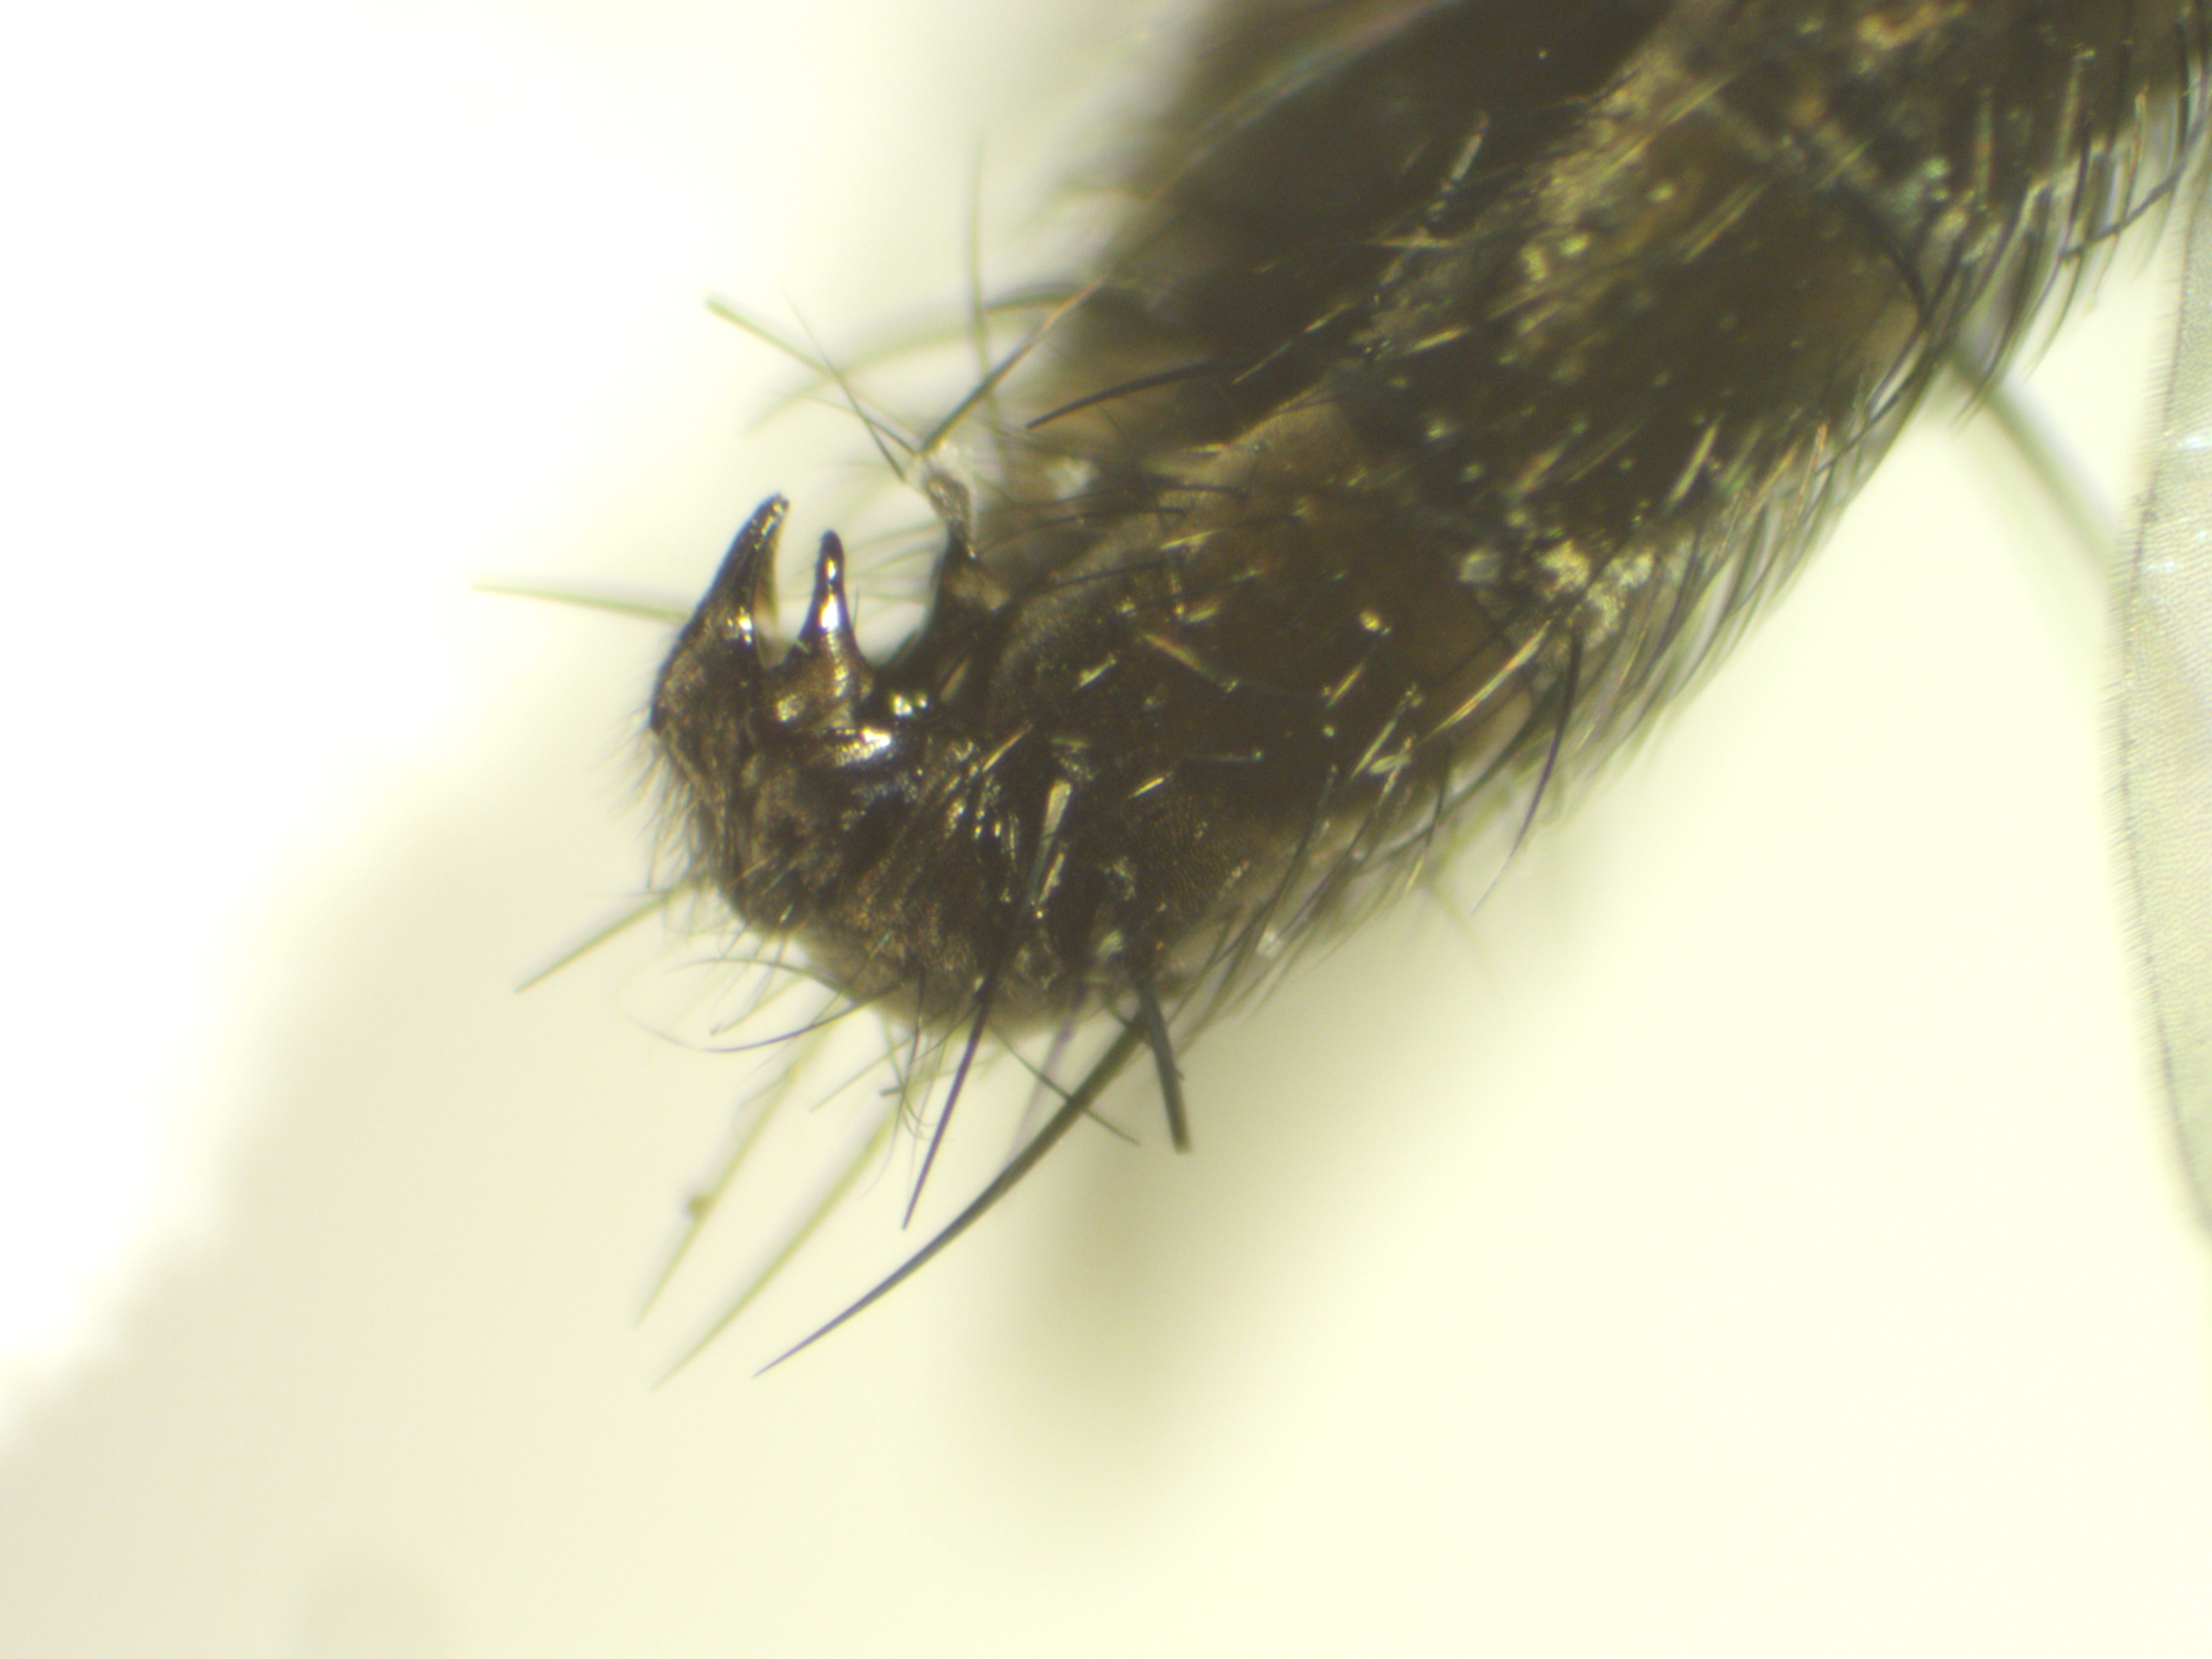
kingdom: Animalia
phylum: Arthropoda
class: Insecta
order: Diptera
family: Sarcophagidae
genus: Metopia
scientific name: Metopia tshernovae
